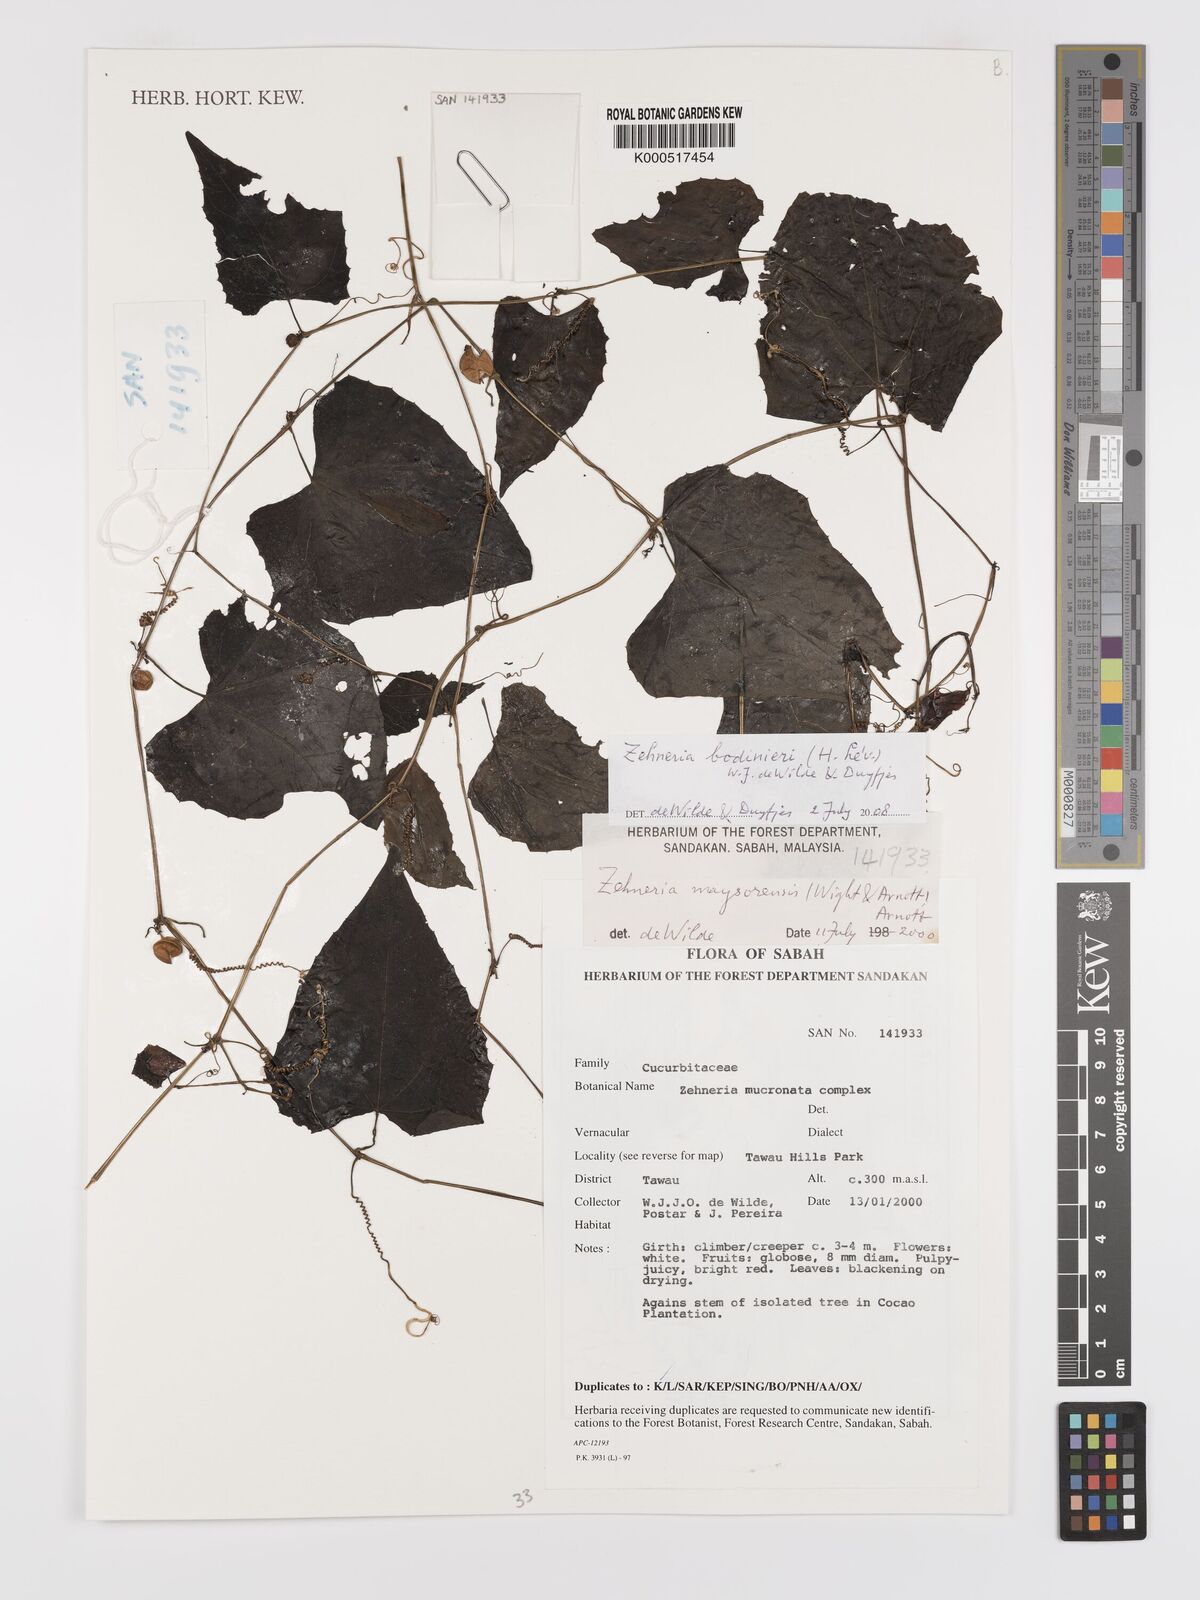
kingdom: Plantae
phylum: Tracheophyta
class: Magnoliopsida
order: Cucurbitales
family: Cucurbitaceae
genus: Zehneria
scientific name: Zehneria
